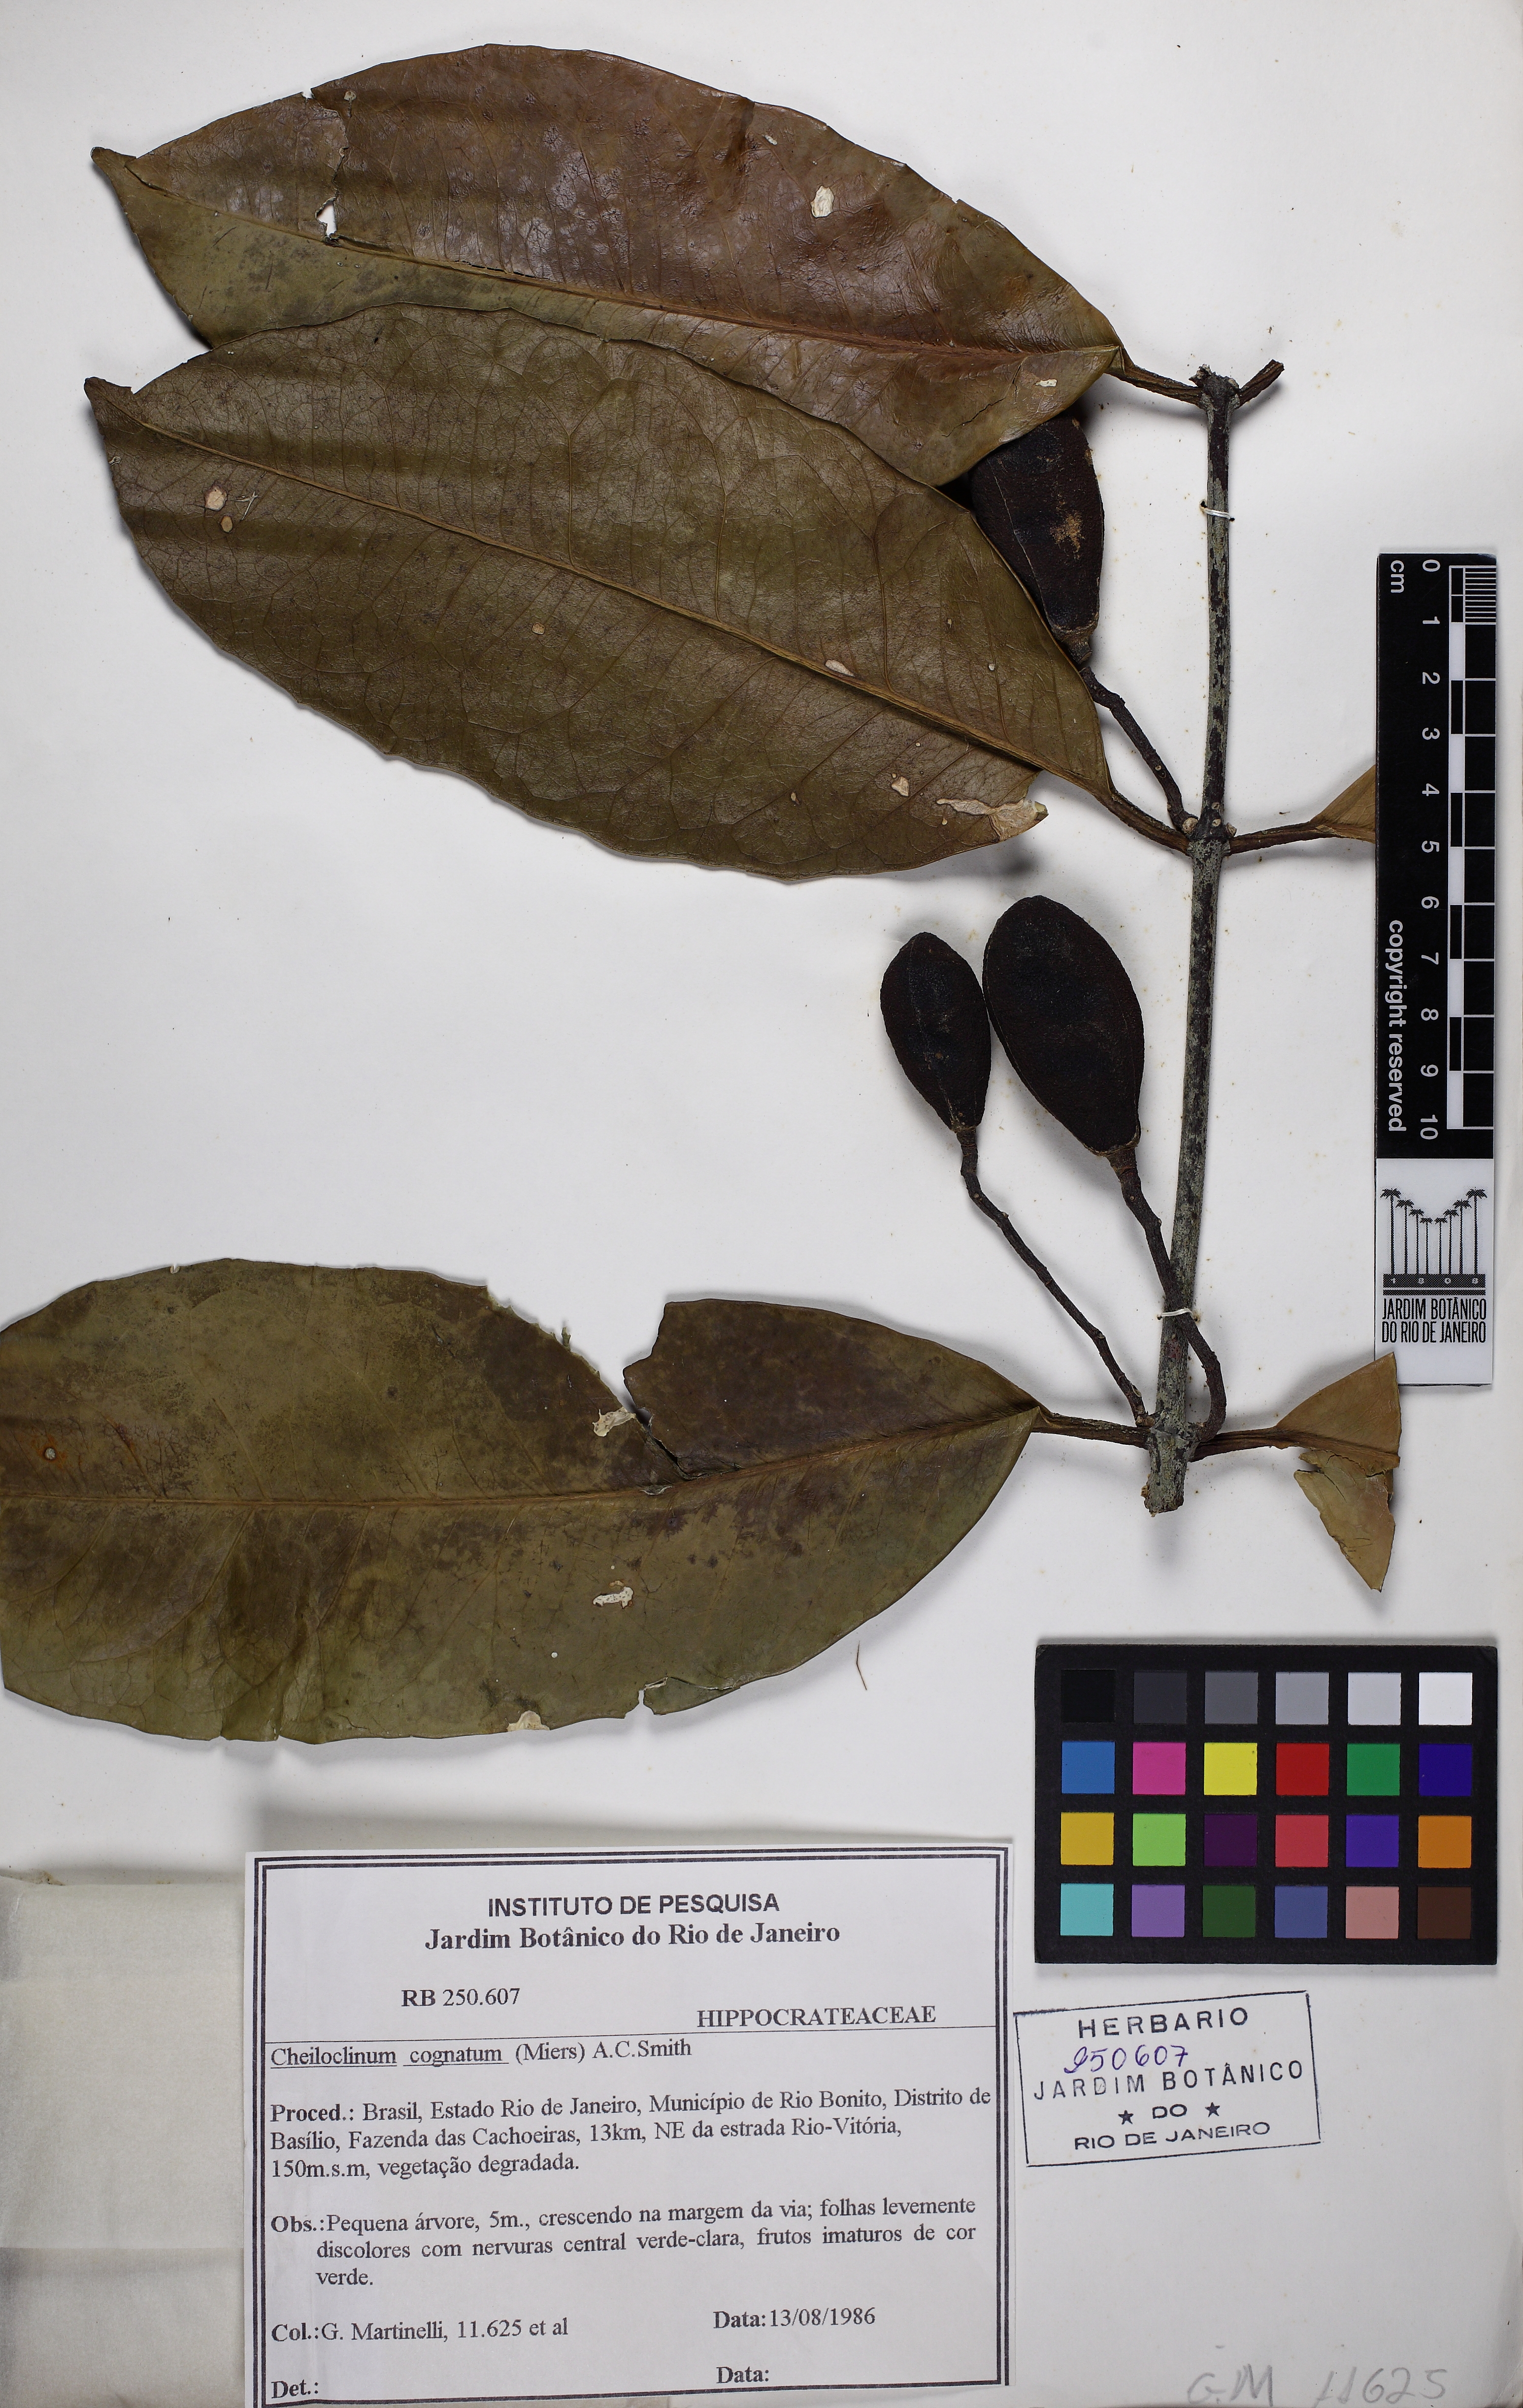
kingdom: Plantae
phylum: Tracheophyta
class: Magnoliopsida
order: Celastrales
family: Celastraceae
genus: Cheiloclinium
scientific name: Cheiloclinium cognatum
